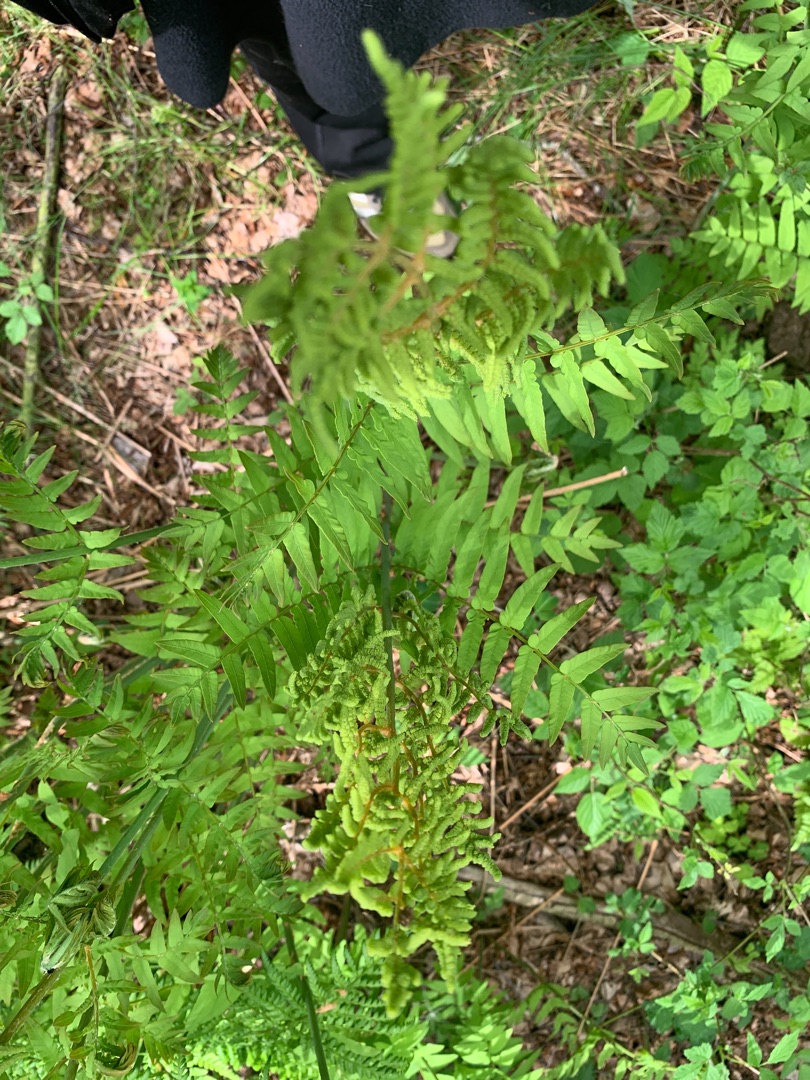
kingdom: Plantae
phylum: Tracheophyta
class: Polypodiopsida
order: Osmundales
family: Osmundaceae
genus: Osmunda
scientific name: Osmunda regalis
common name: Kongebregne
